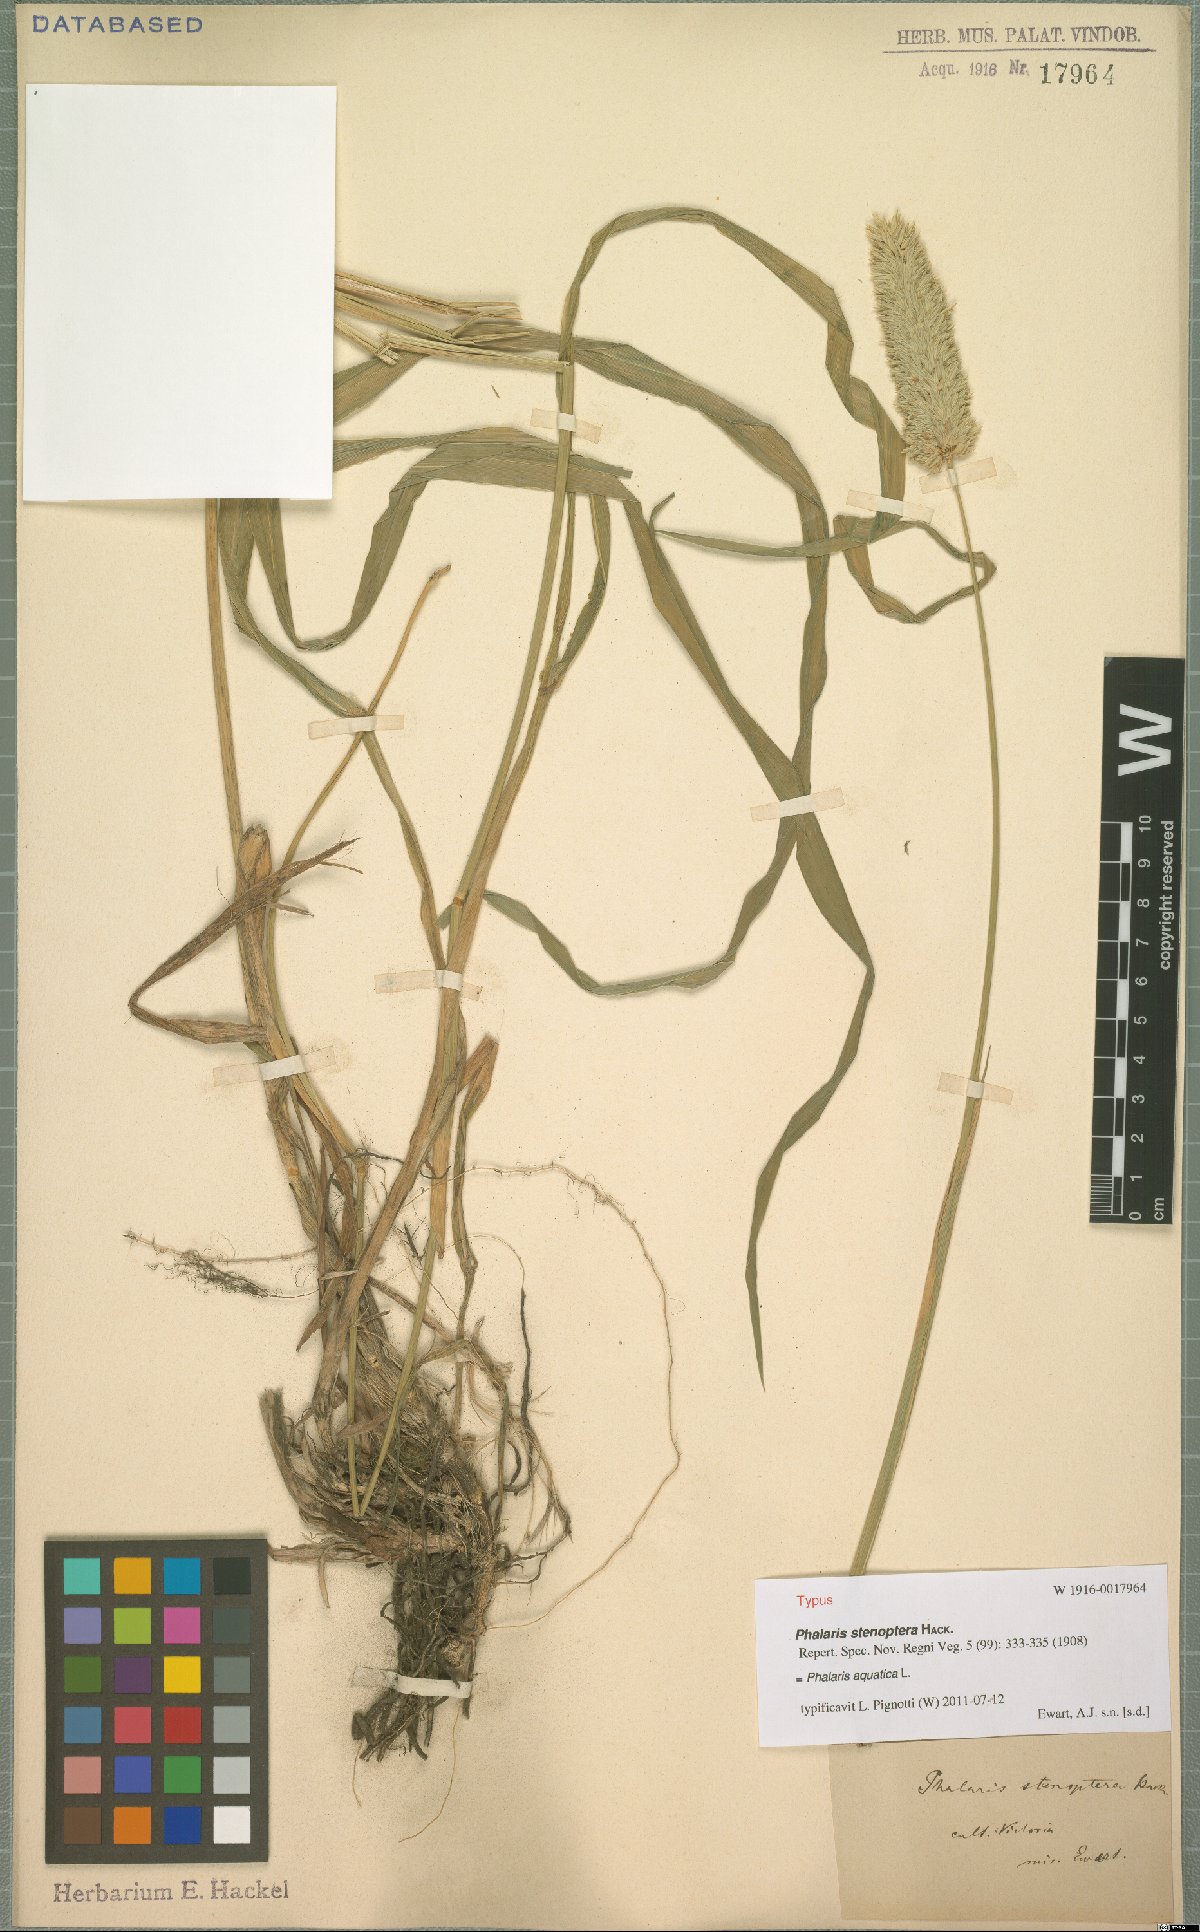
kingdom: Plantae
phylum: Tracheophyta
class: Liliopsida
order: Poales
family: Poaceae
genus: Phalaris
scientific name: Phalaris aquatica
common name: Bulbous canary-grass
